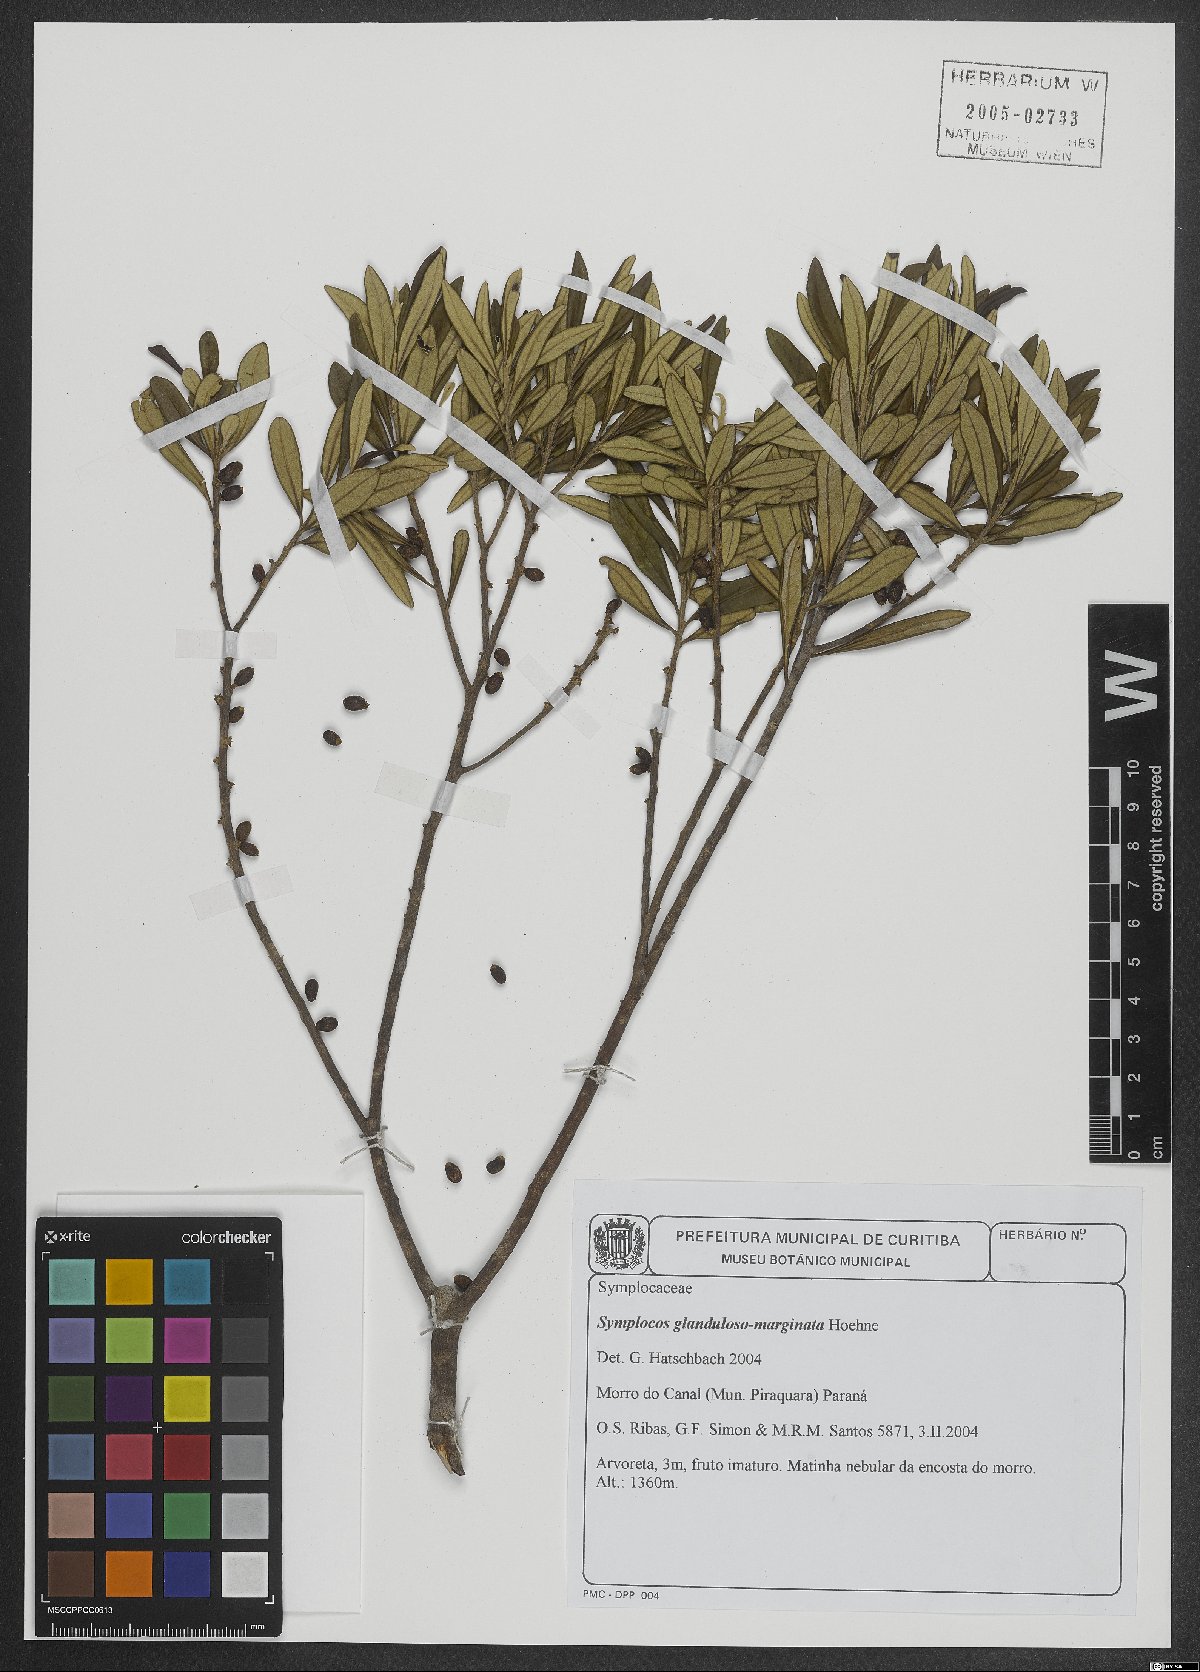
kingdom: Plantae
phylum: Tracheophyta
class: Magnoliopsida
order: Ericales
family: Symplocaceae
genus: Symplocos
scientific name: Symplocos glandulosomarginata
